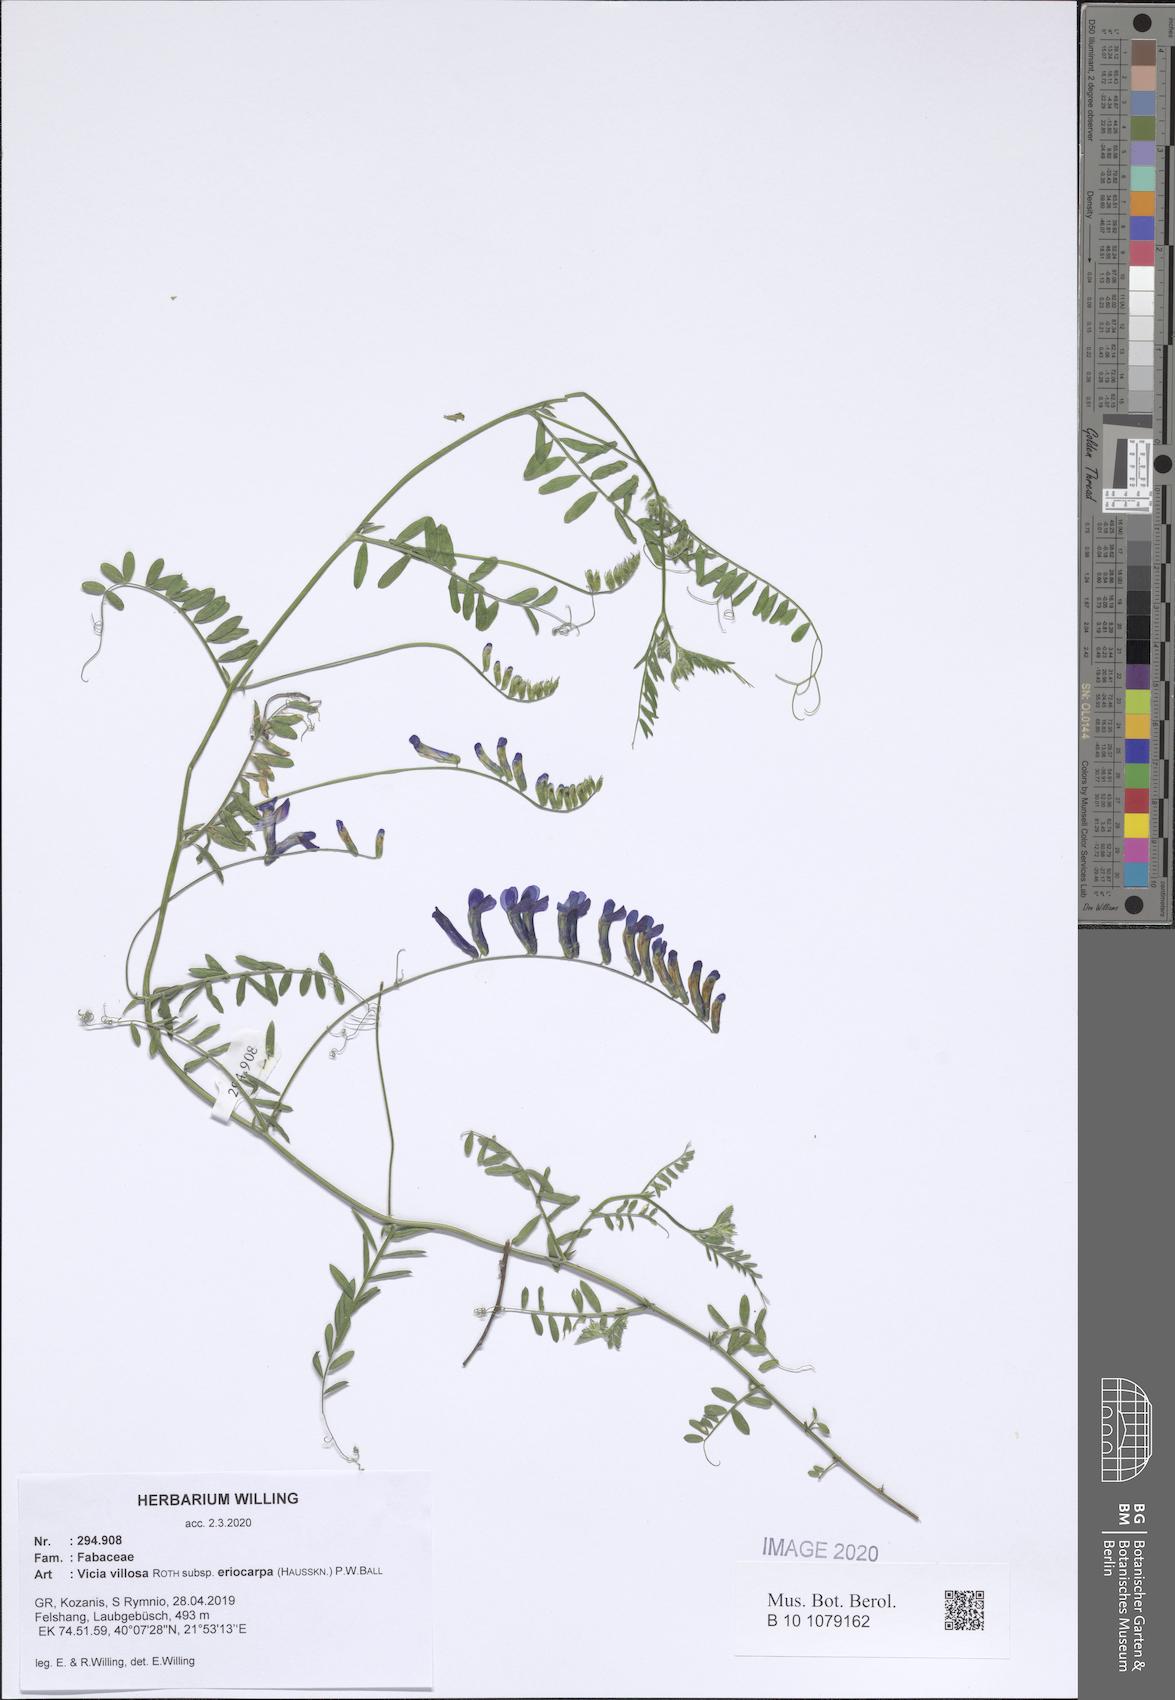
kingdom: Plantae
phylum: Tracheophyta
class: Magnoliopsida
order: Fabales
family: Fabaceae
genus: Vicia
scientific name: Vicia eriocarpa
